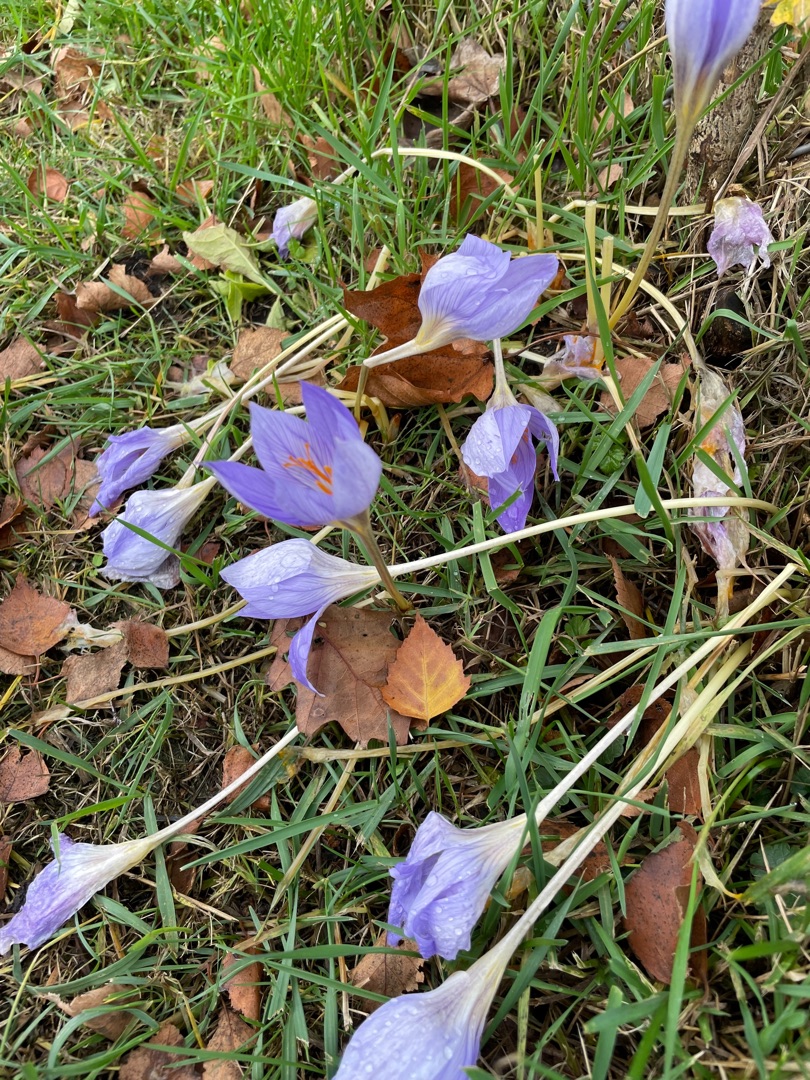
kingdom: Plantae
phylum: Tracheophyta
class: Liliopsida
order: Asparagales
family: Iridaceae
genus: Crocus
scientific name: Crocus speciosus
